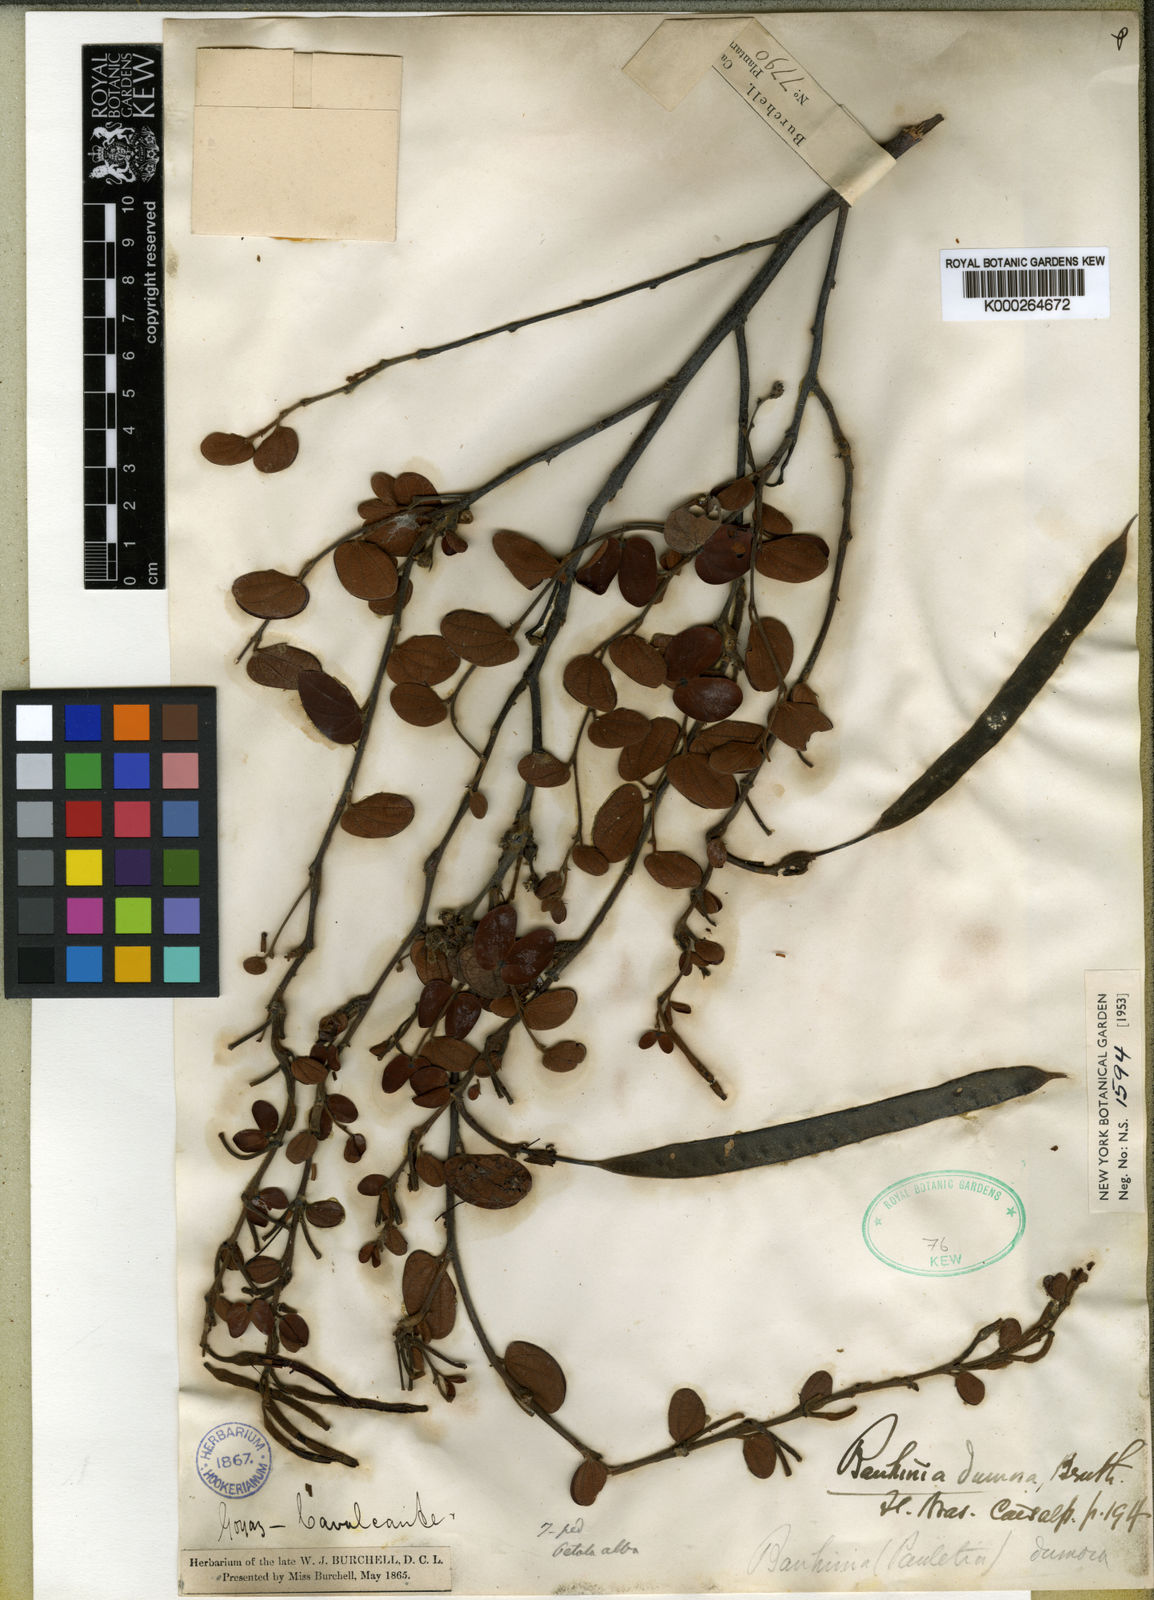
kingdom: Plantae
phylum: Tracheophyta
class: Magnoliopsida
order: Fabales
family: Fabaceae
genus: Bauhinia
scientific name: Bauhinia dumosa
